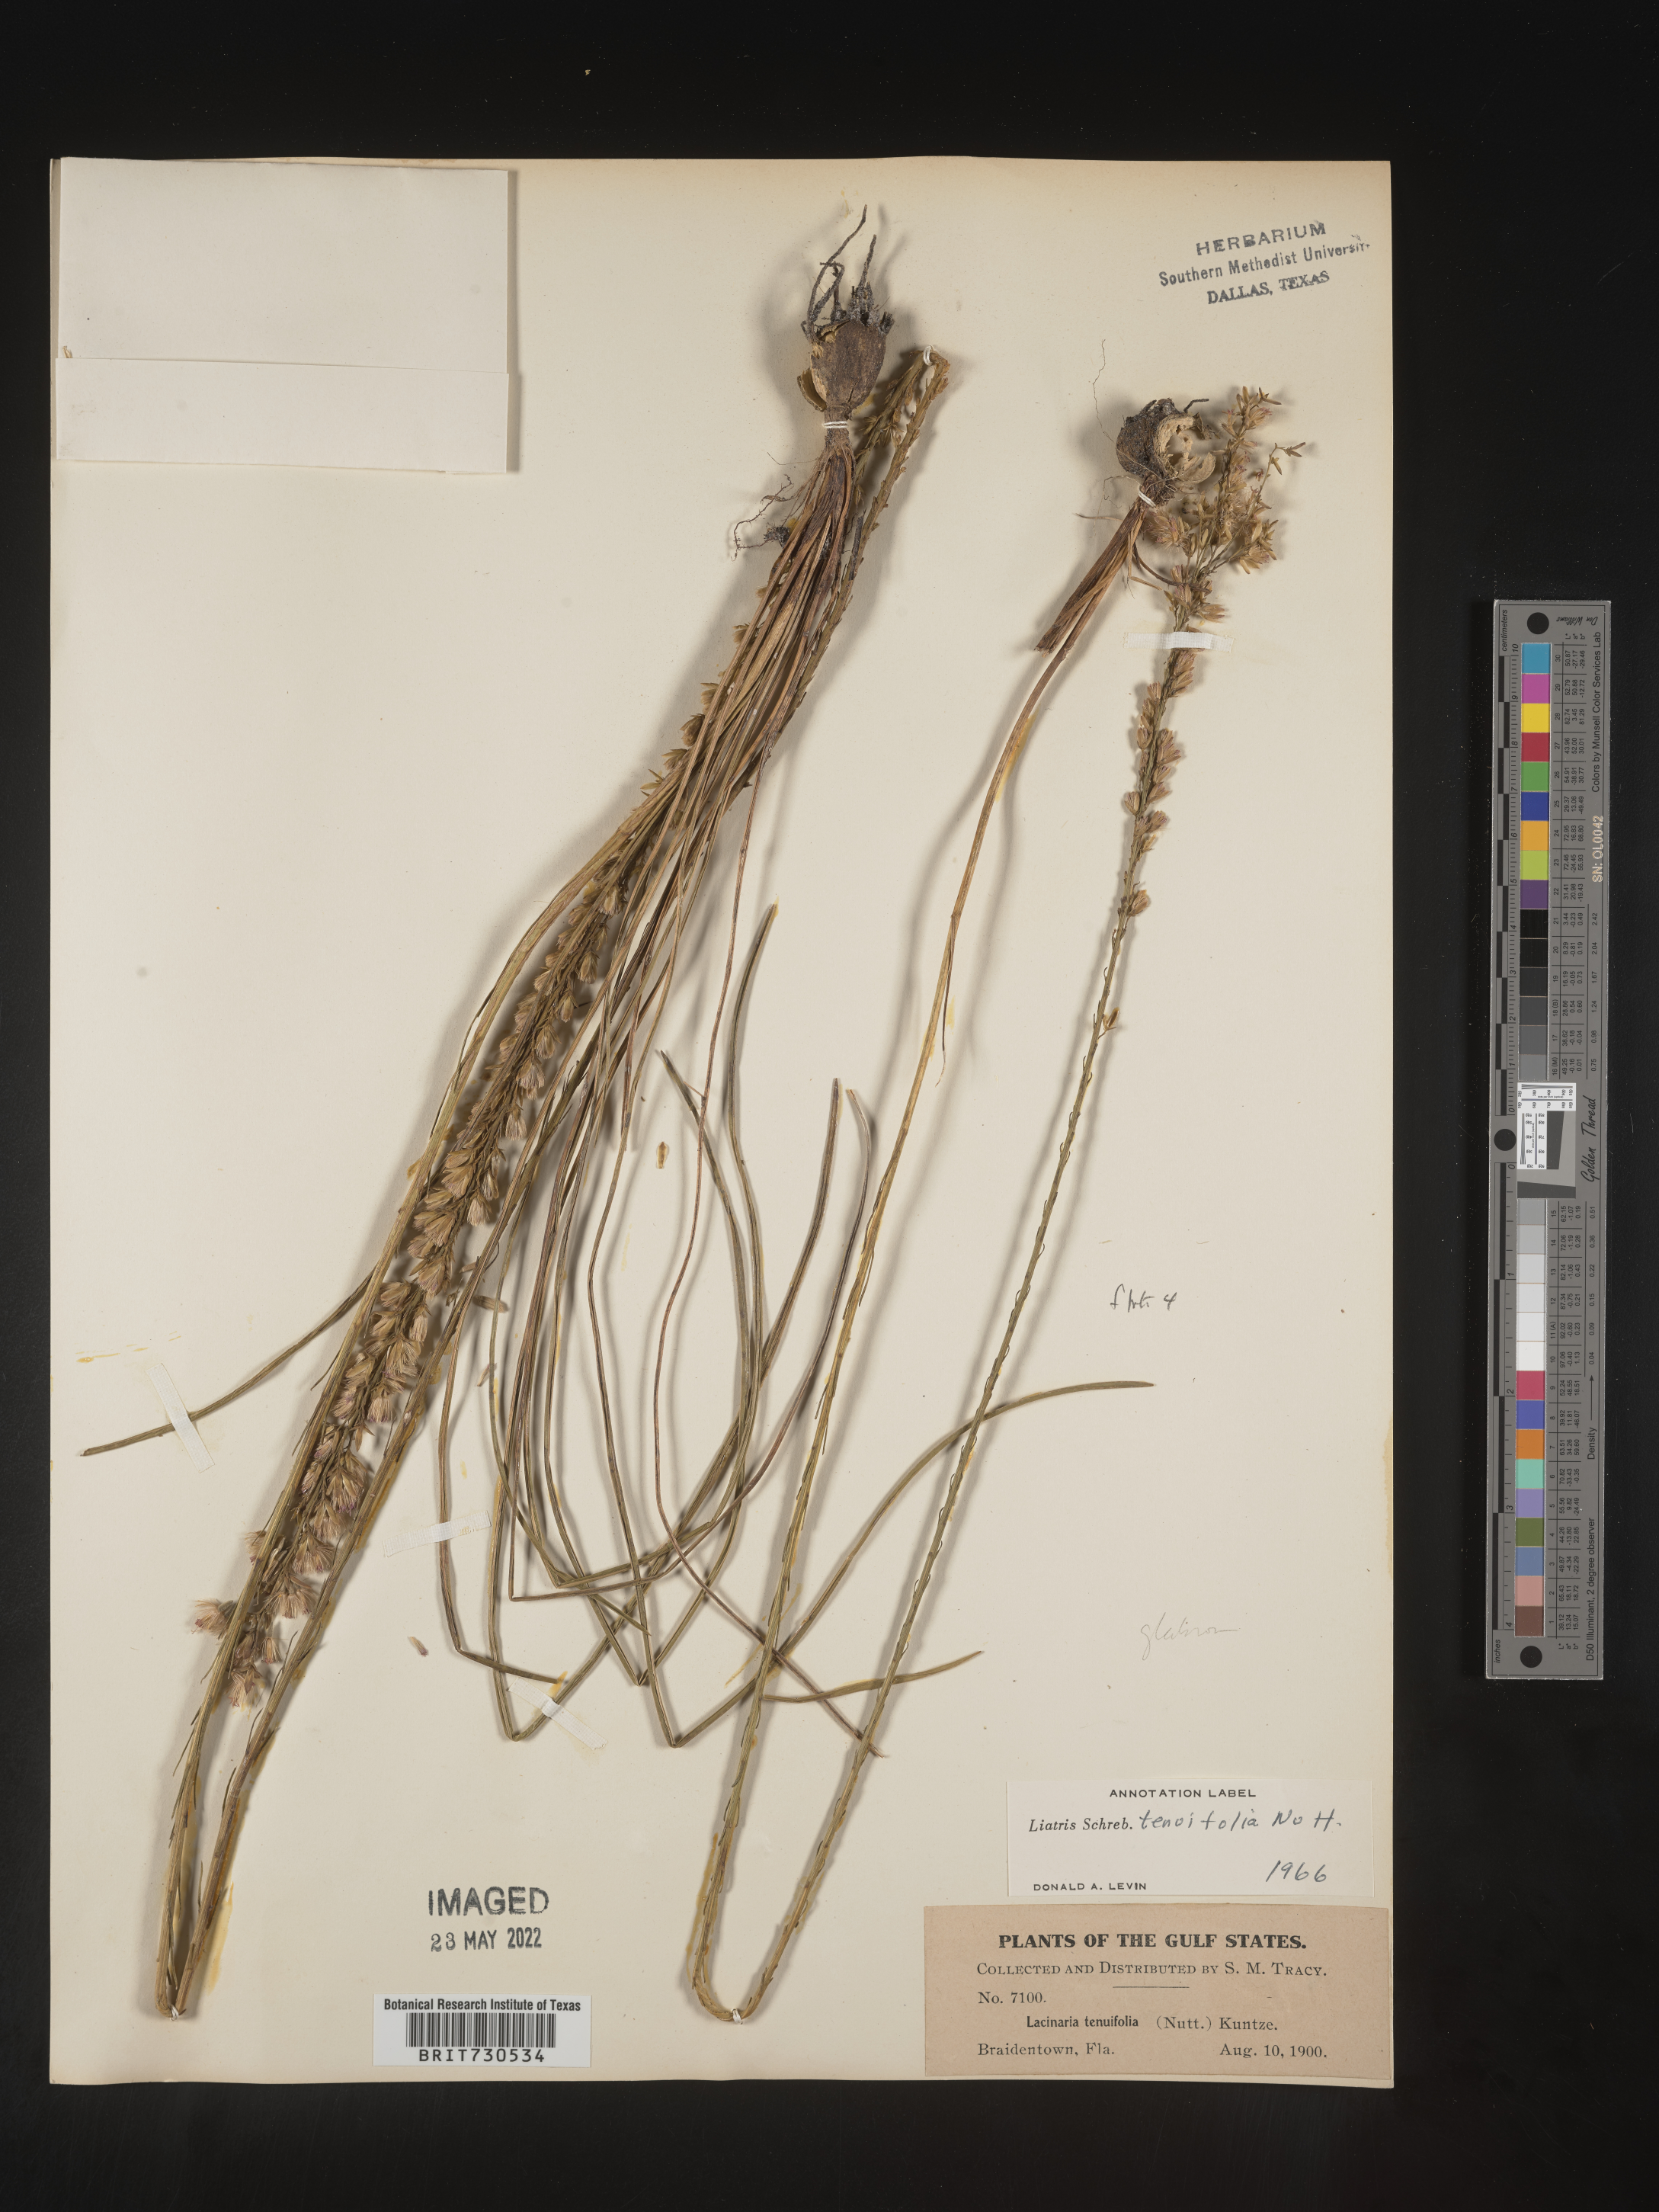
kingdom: Plantae
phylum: Tracheophyta
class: Magnoliopsida
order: Asterales
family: Asteraceae
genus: Liatris
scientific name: Liatris laevigata
